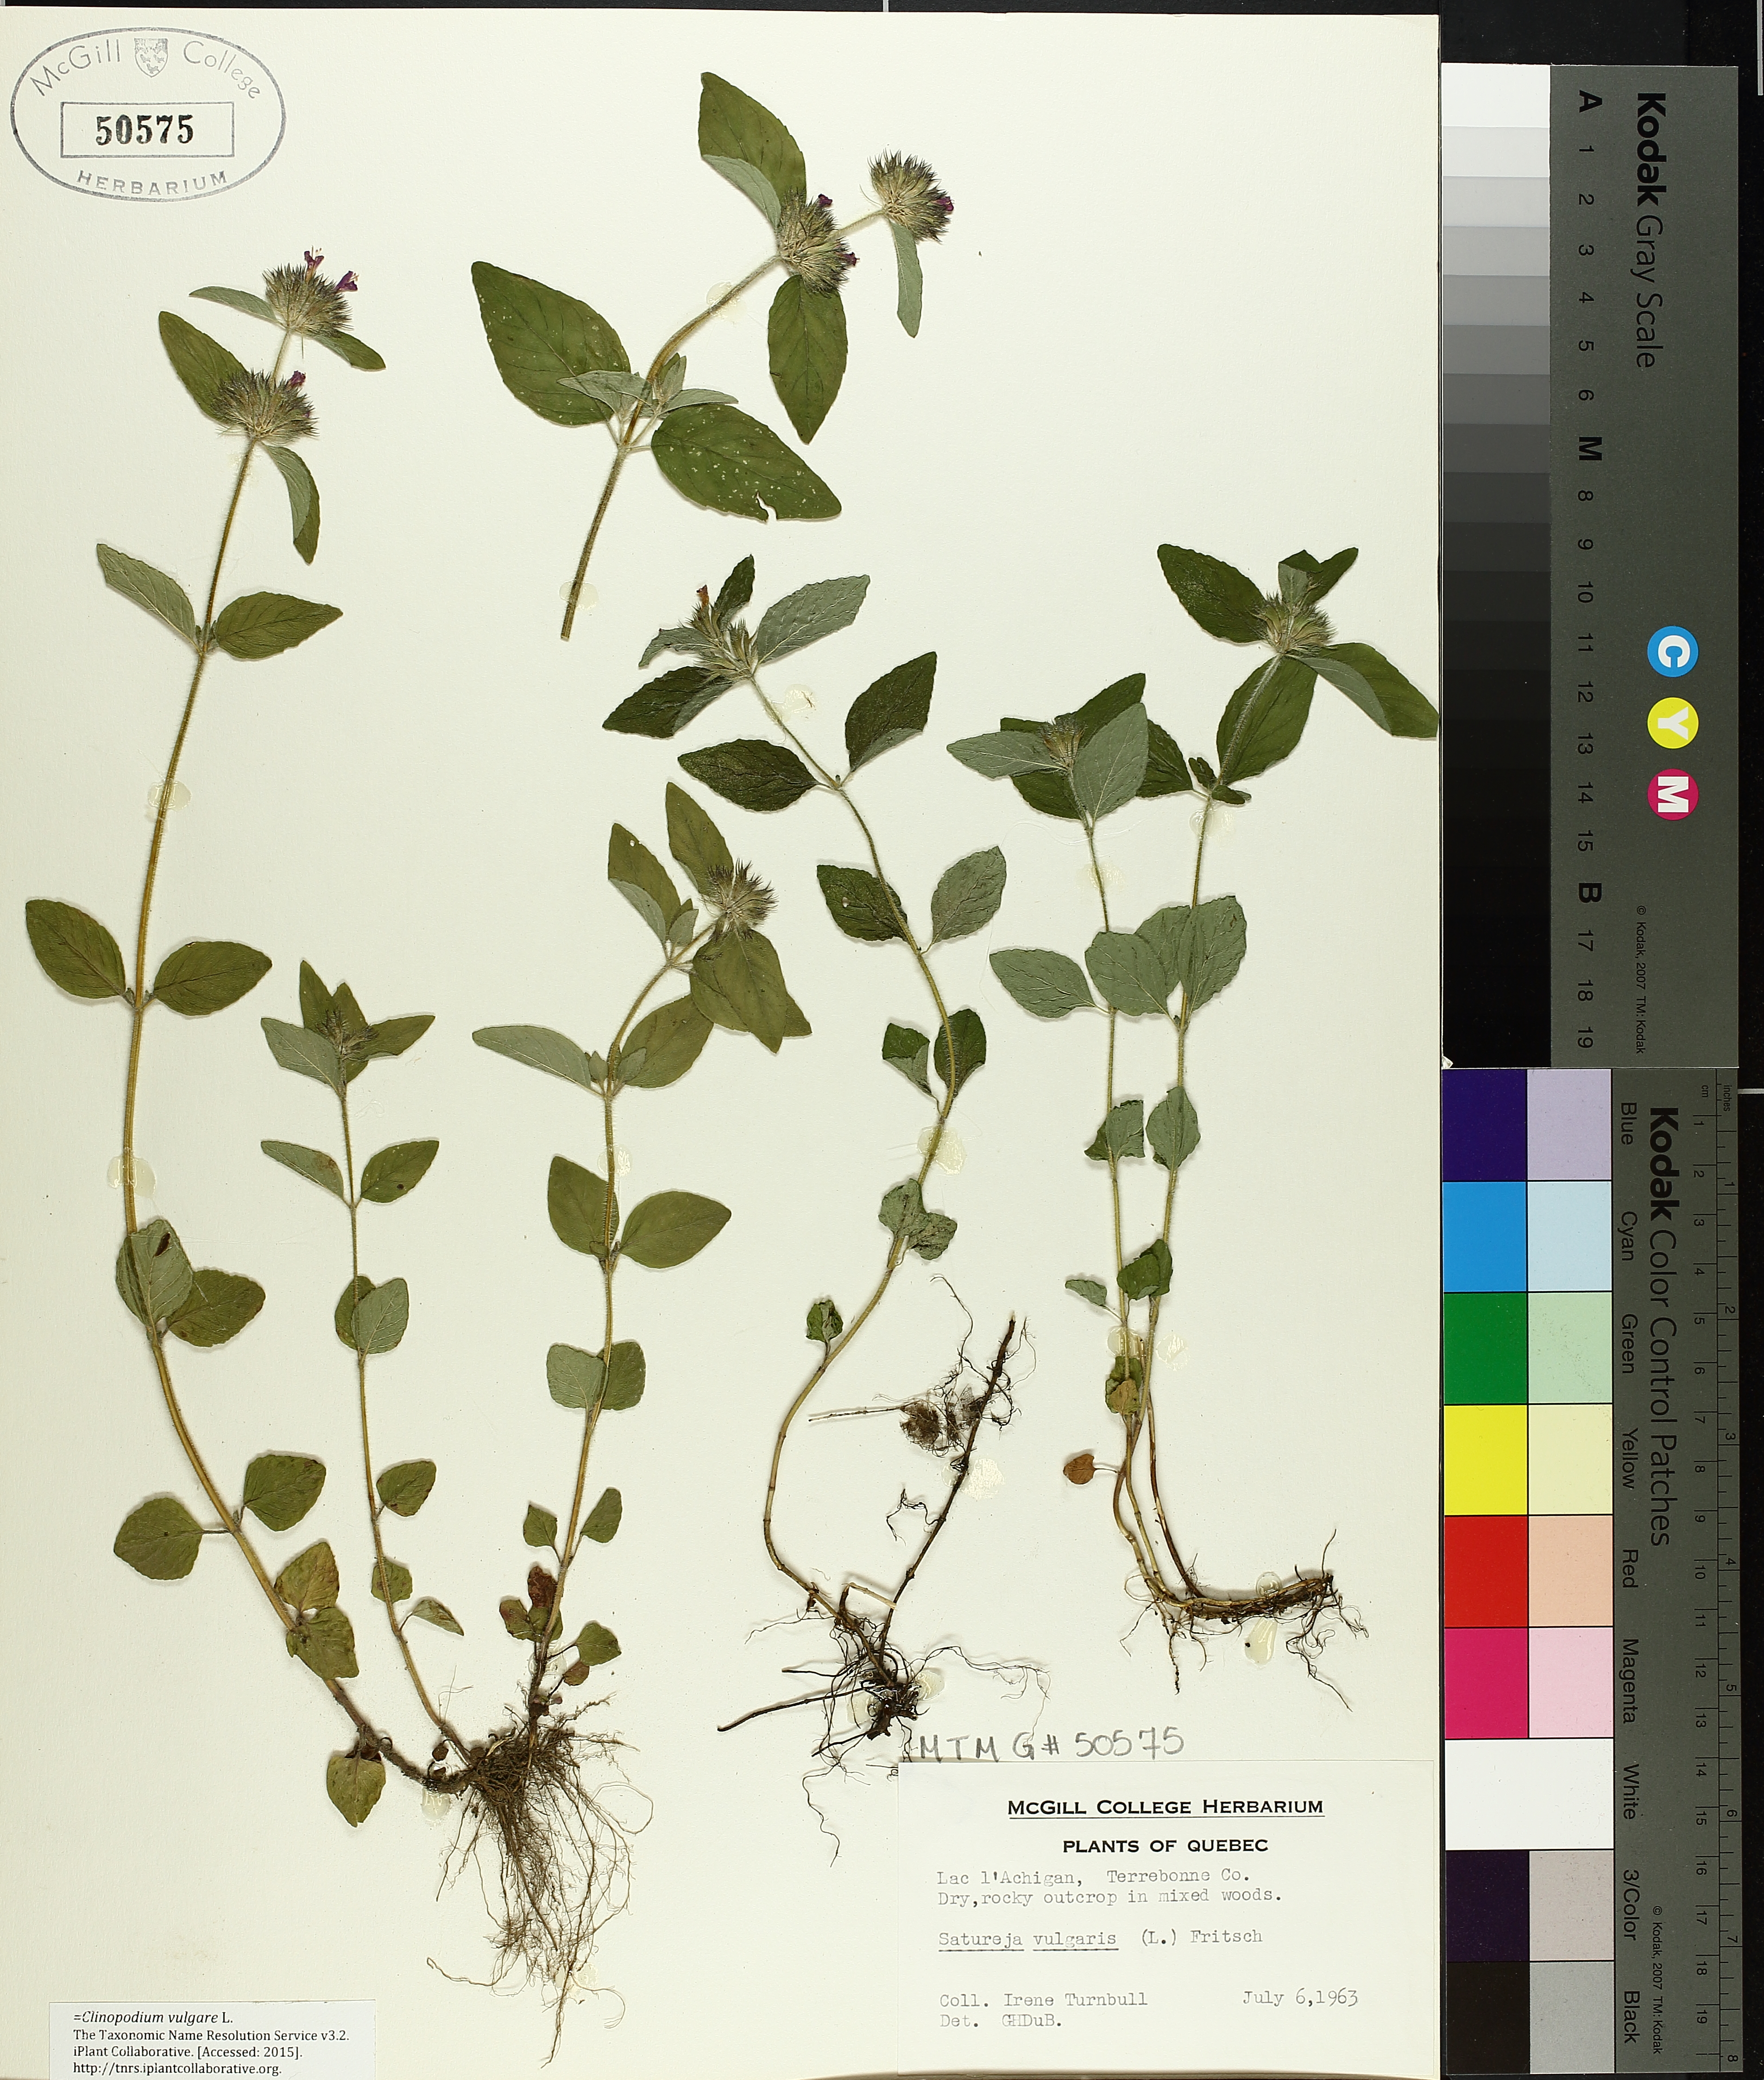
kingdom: Plantae
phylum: Tracheophyta
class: Magnoliopsida
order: Lamiales
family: Lamiaceae
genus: Clinopodium
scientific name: Clinopodium vulgare
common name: Wild basil
